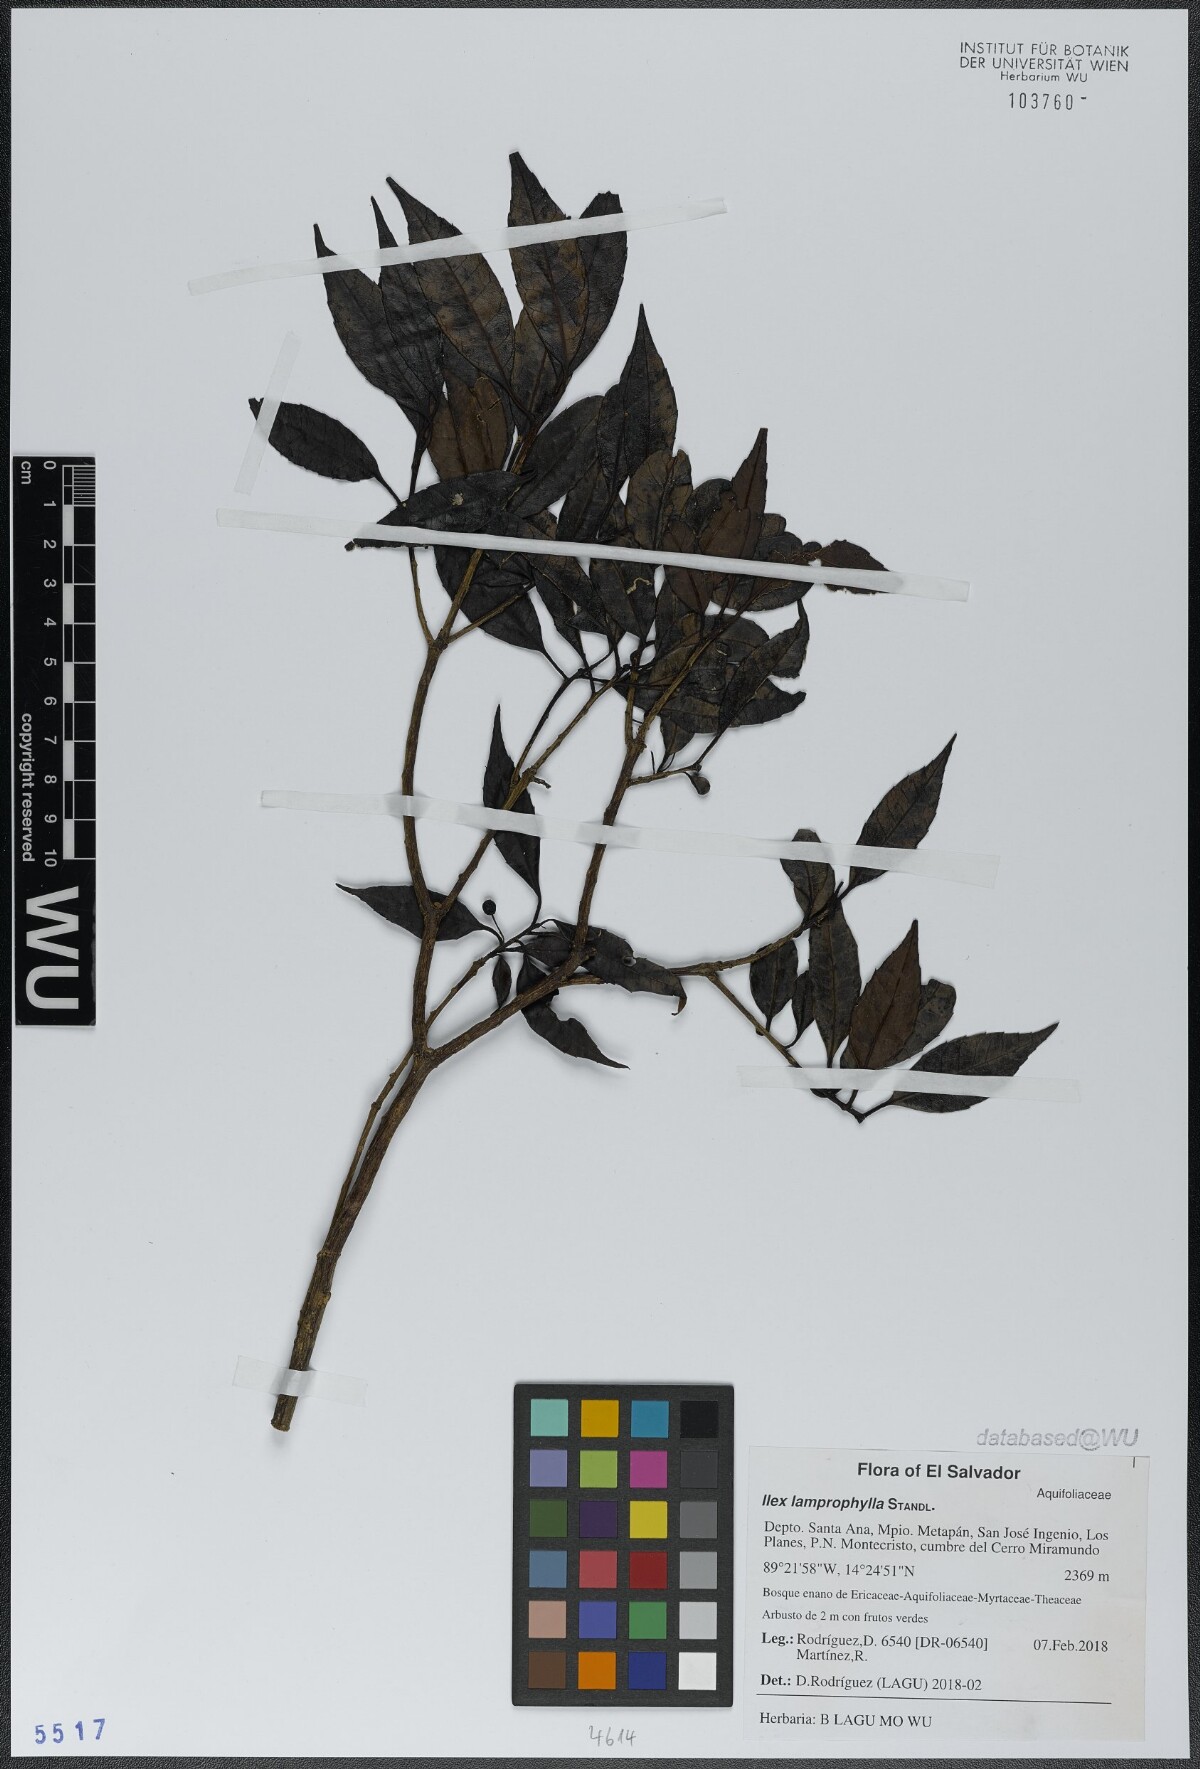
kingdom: Plantae
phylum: Tracheophyta
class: Magnoliopsida
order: Aquifoliales
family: Aquifoliaceae
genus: Ilex
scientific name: Ilex liebmannii
